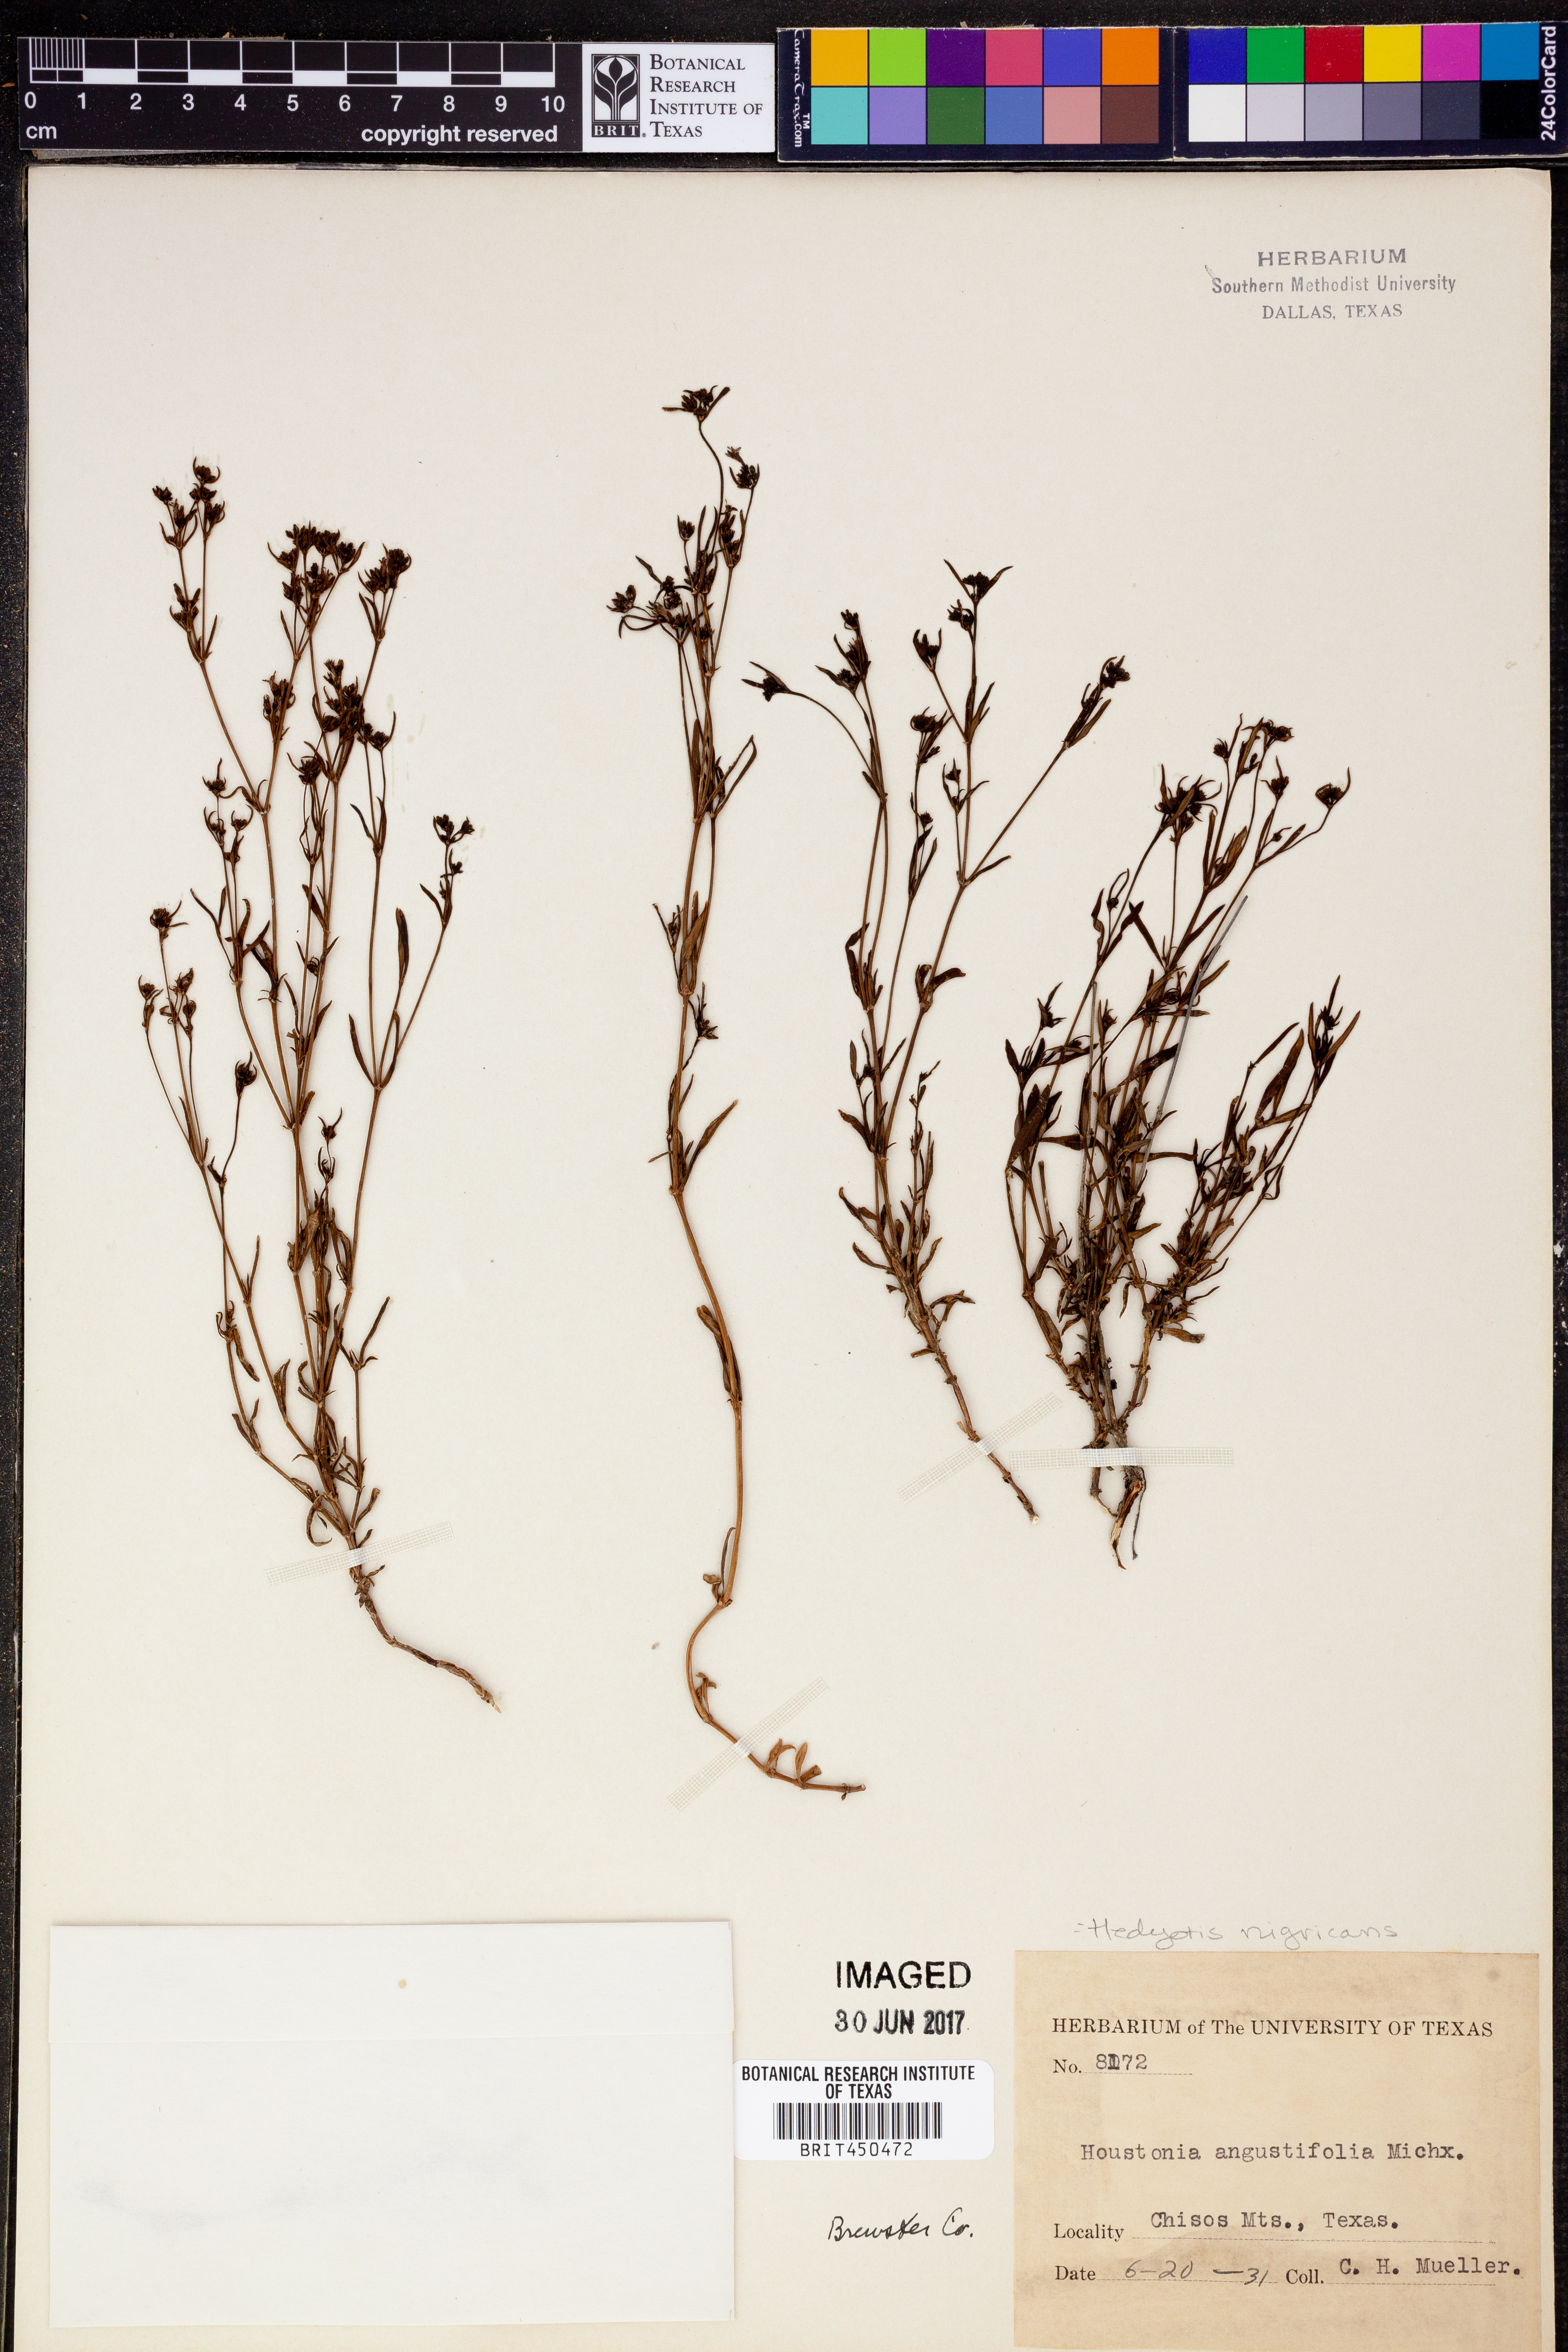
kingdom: Plantae
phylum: Tracheophyta
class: Magnoliopsida
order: Gentianales
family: Rubiaceae
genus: Stenaria
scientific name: Stenaria nigricans
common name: Diamondflowers
